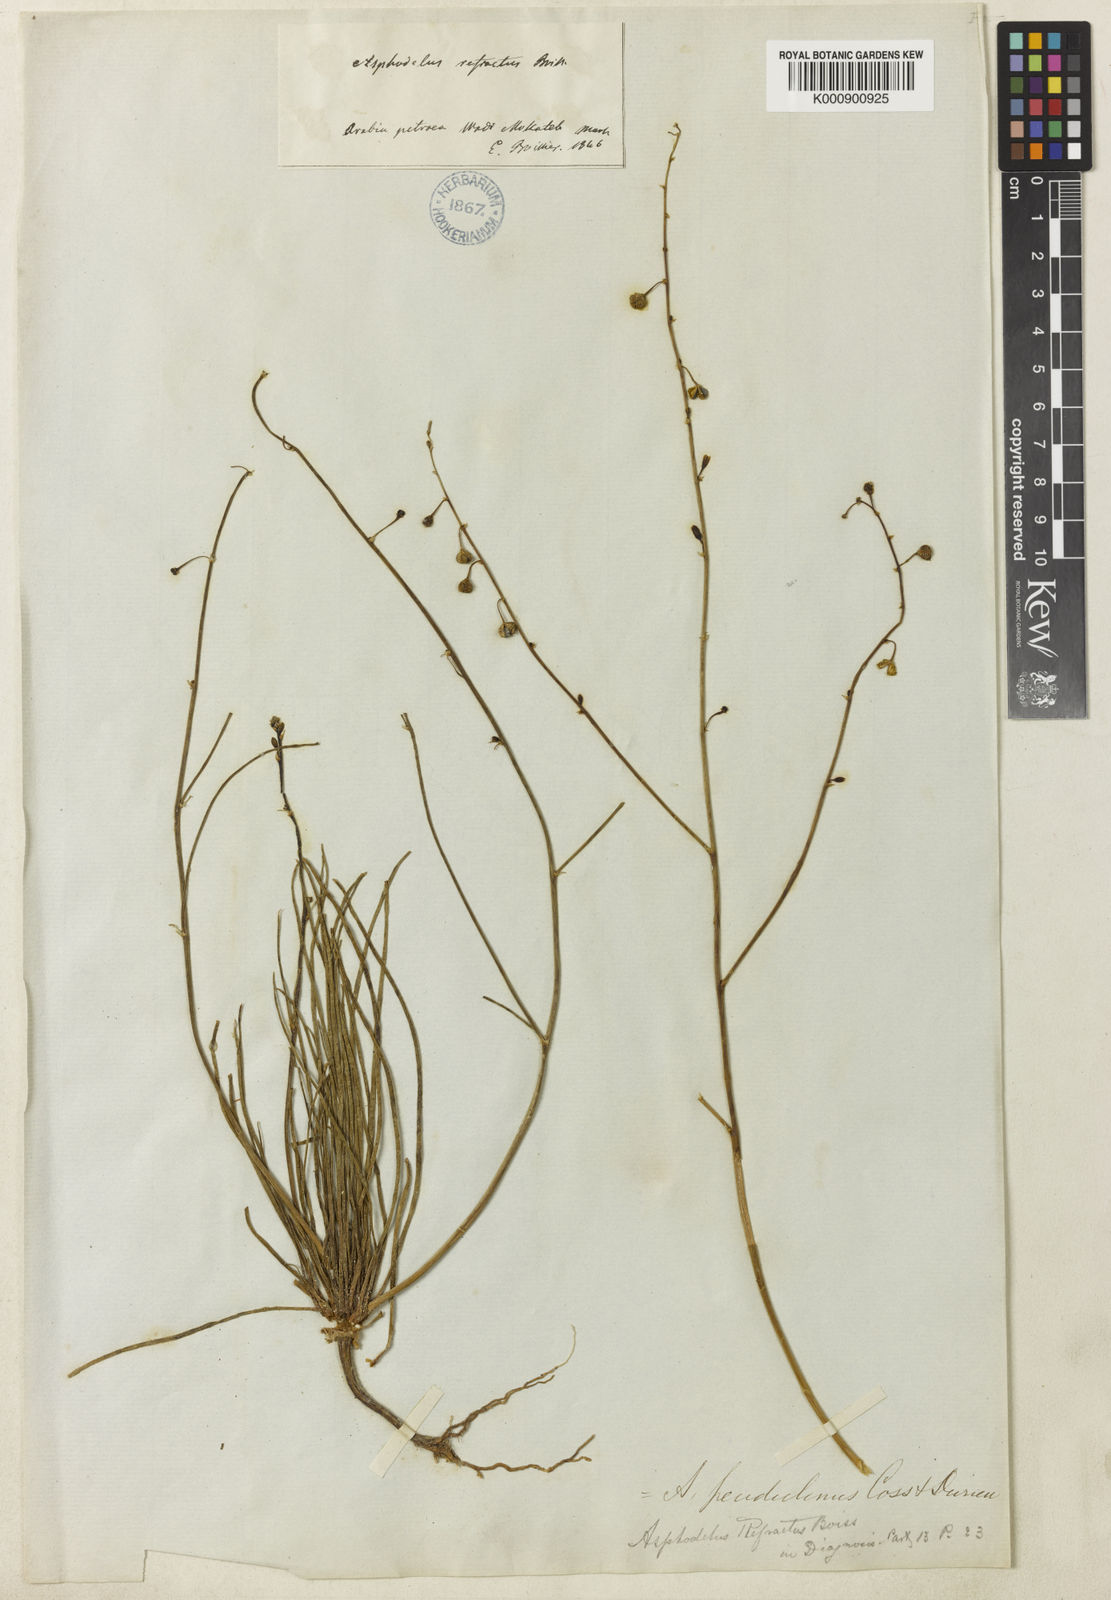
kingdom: Plantae
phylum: Tracheophyta
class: Liliopsida
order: Asparagales
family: Asphodelaceae
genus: Asphodelus
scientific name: Asphodelus refractus
